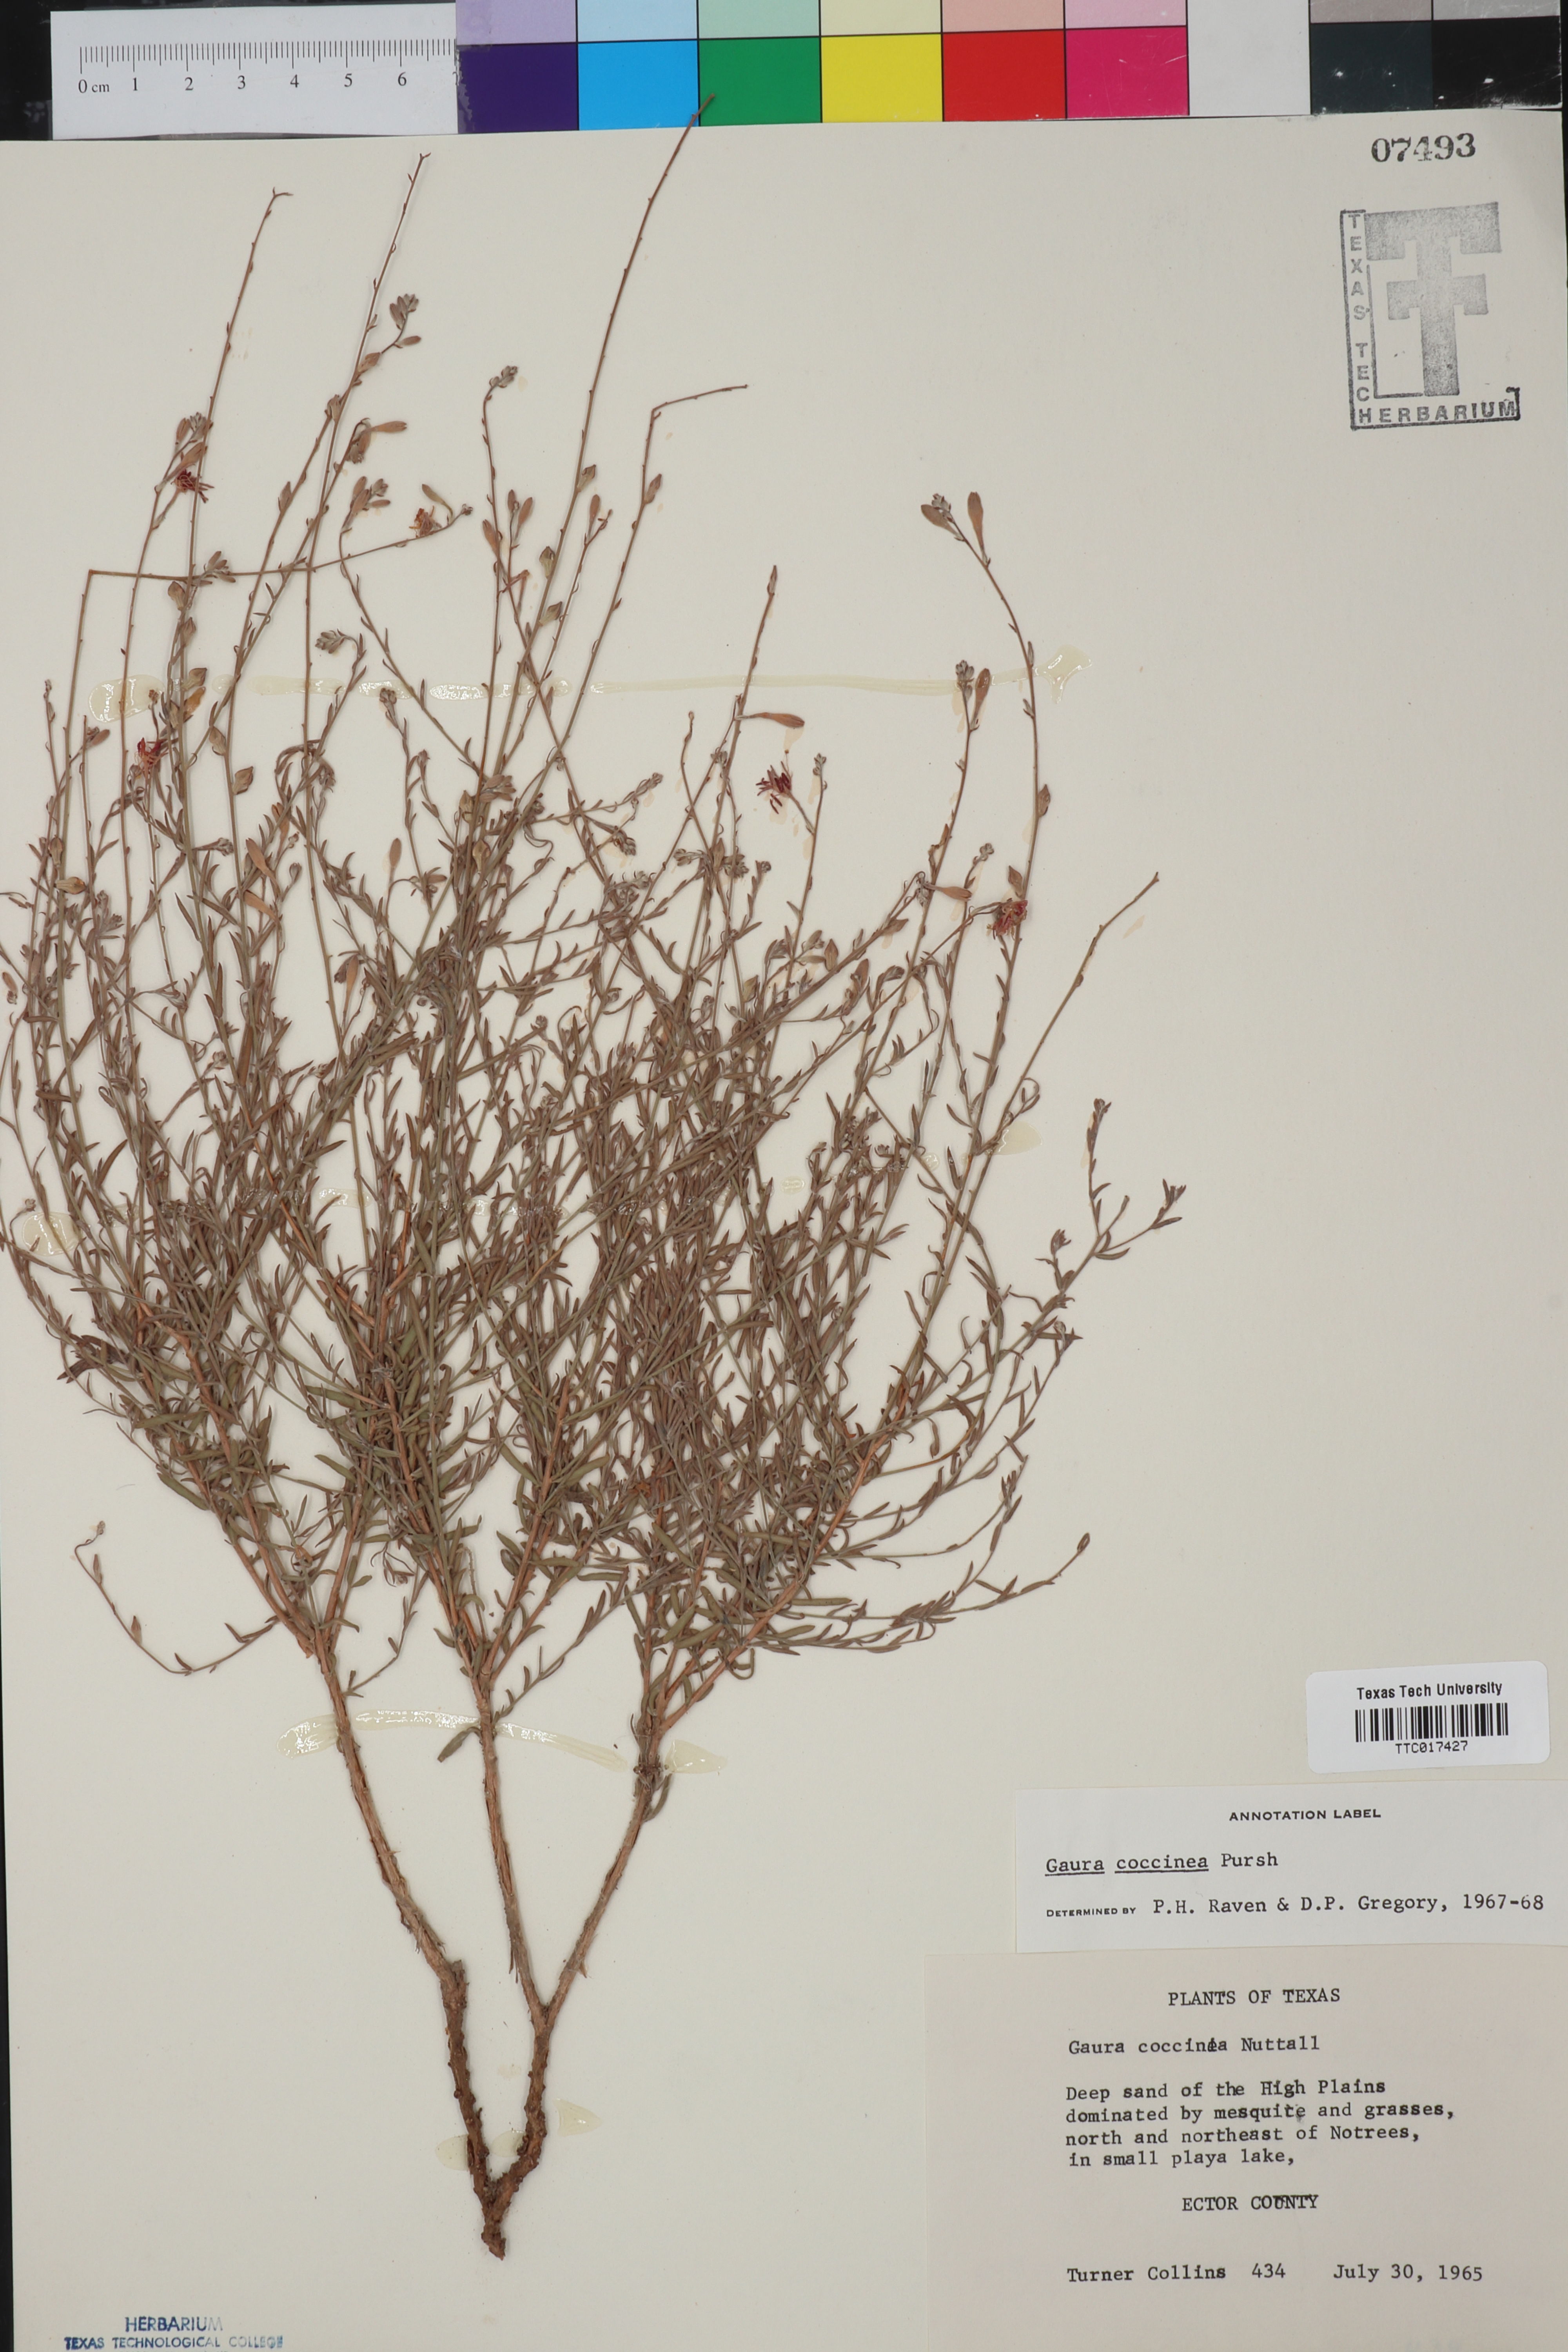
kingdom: Plantae
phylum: Tracheophyta
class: Magnoliopsida
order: Myrtales
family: Onagraceae
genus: Oenothera
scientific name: Oenothera suffrutescens
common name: Scarlet beeblossom
